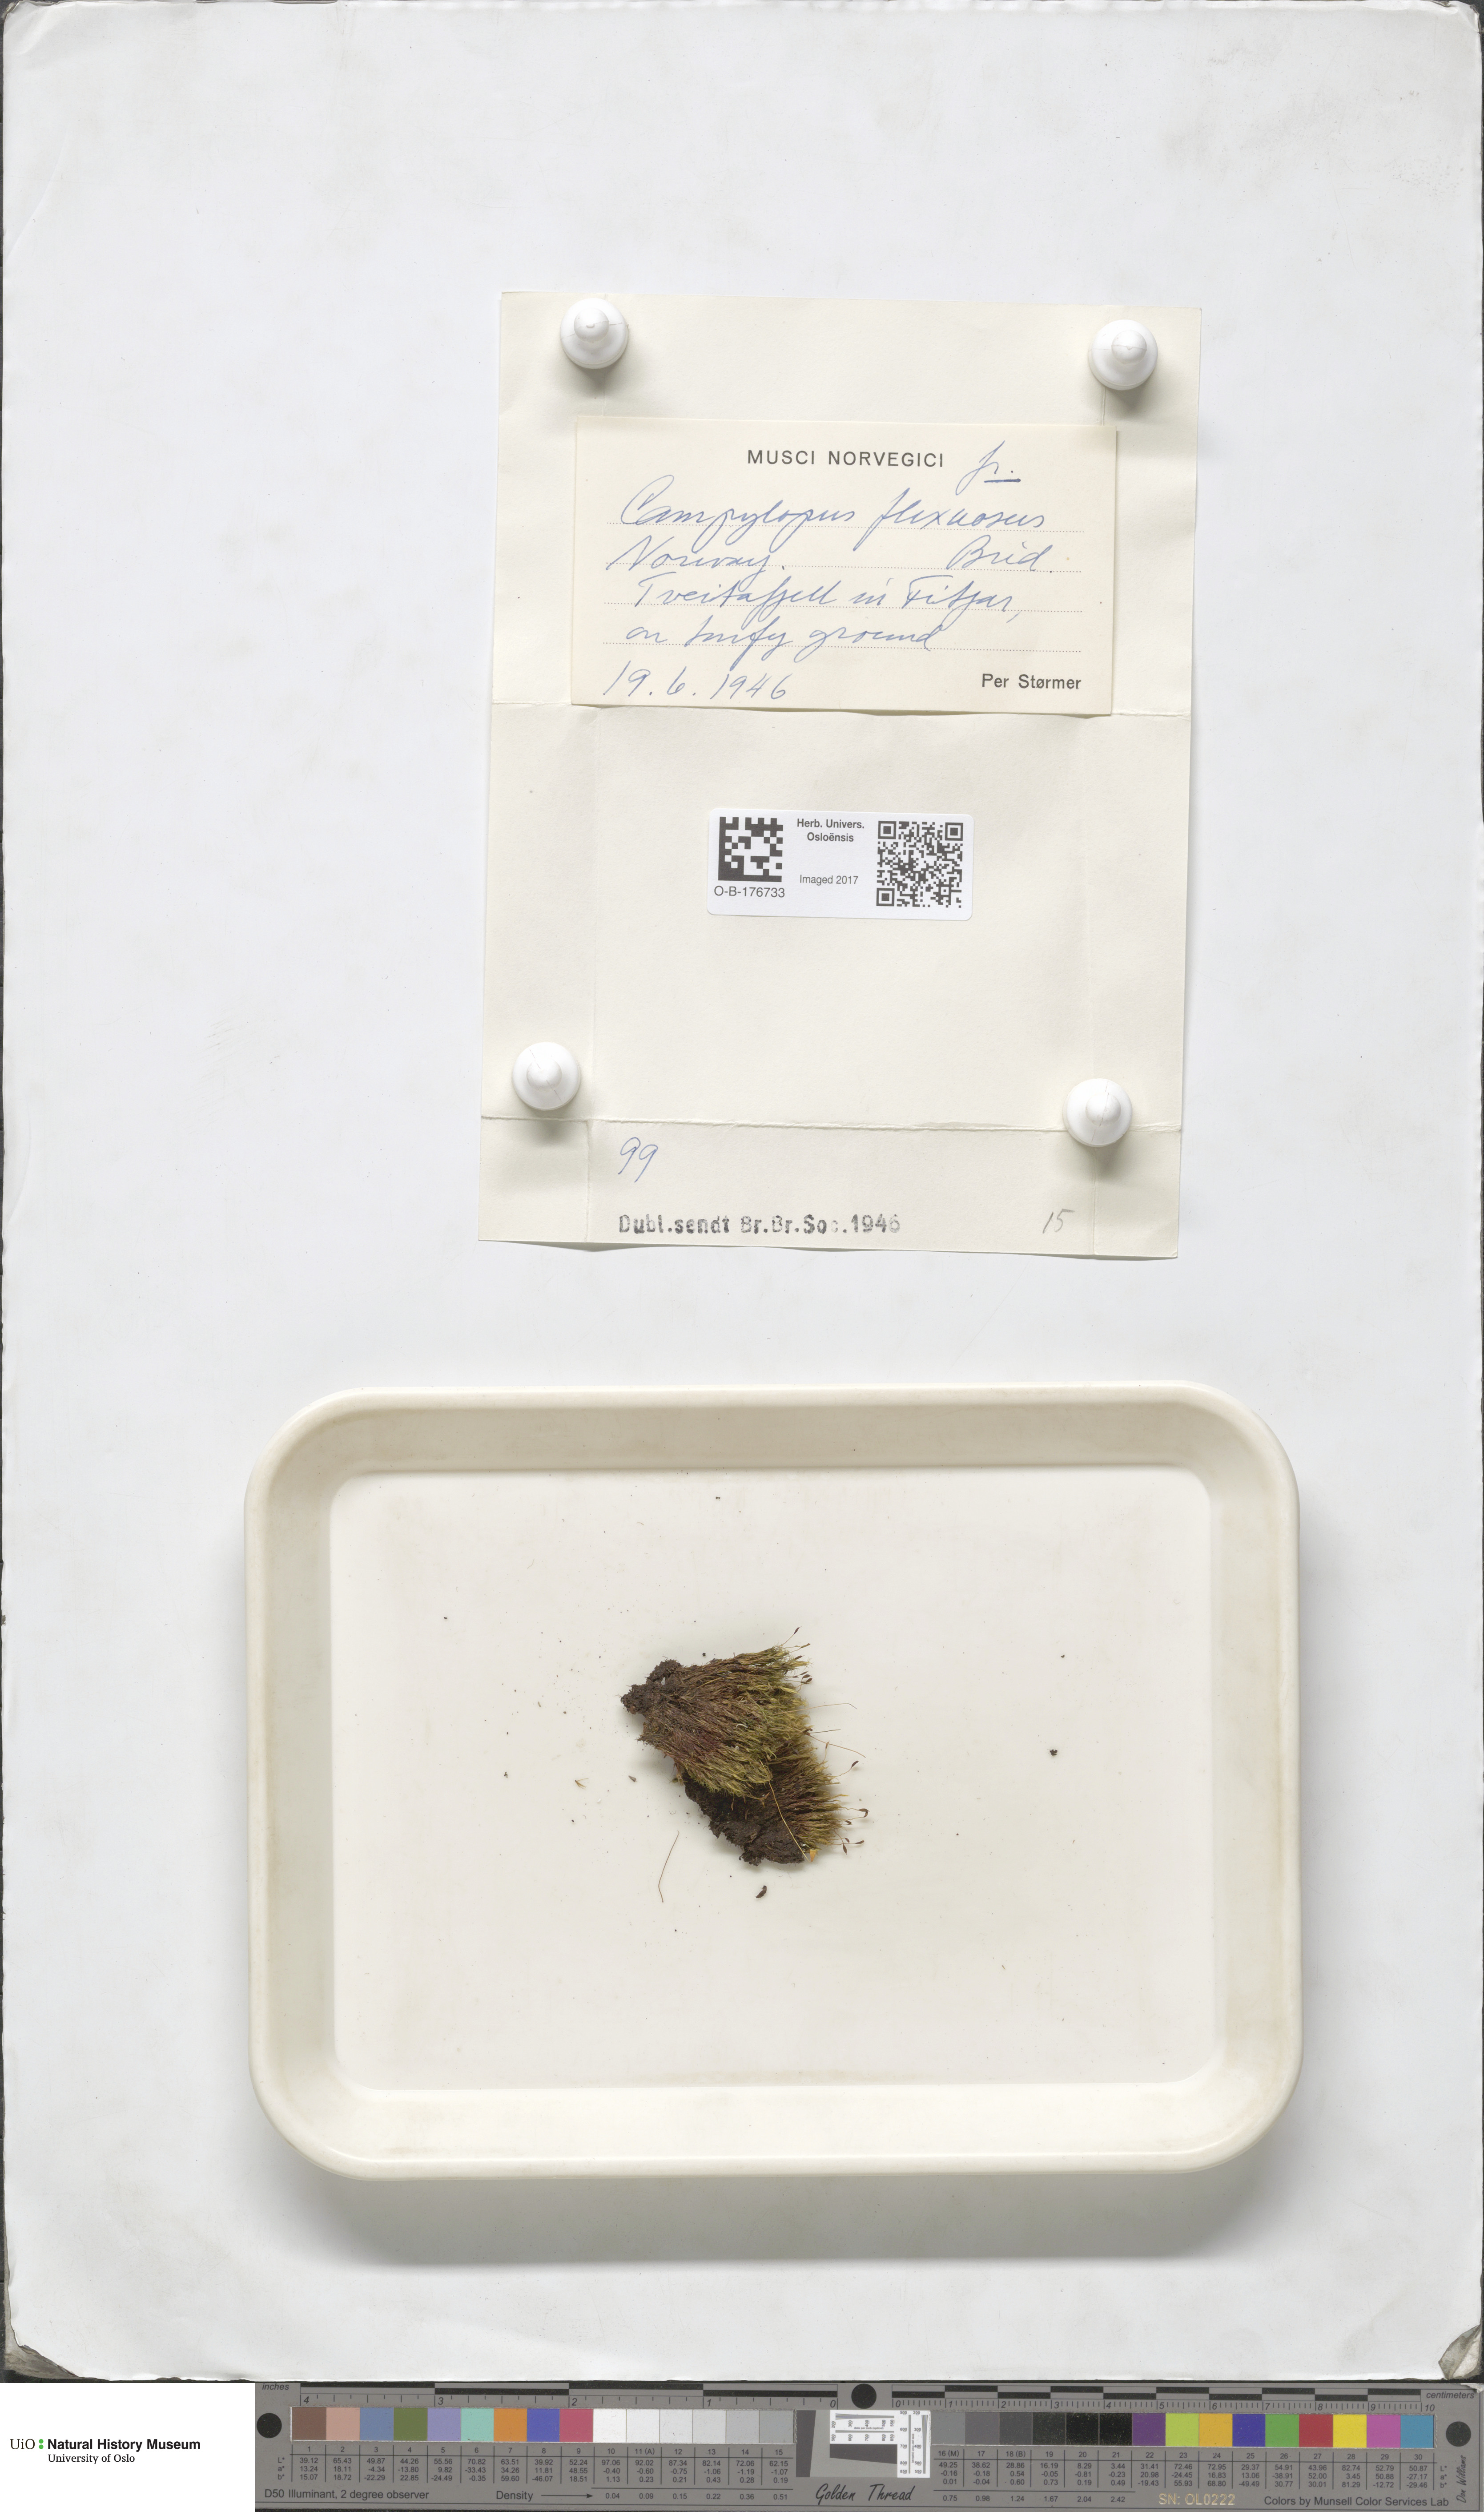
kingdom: Plantae
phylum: Bryophyta
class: Bryopsida
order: Dicranales
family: Leucobryaceae
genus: Campylopus
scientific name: Campylopus flexuosus
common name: Rusty swan-neck moss
